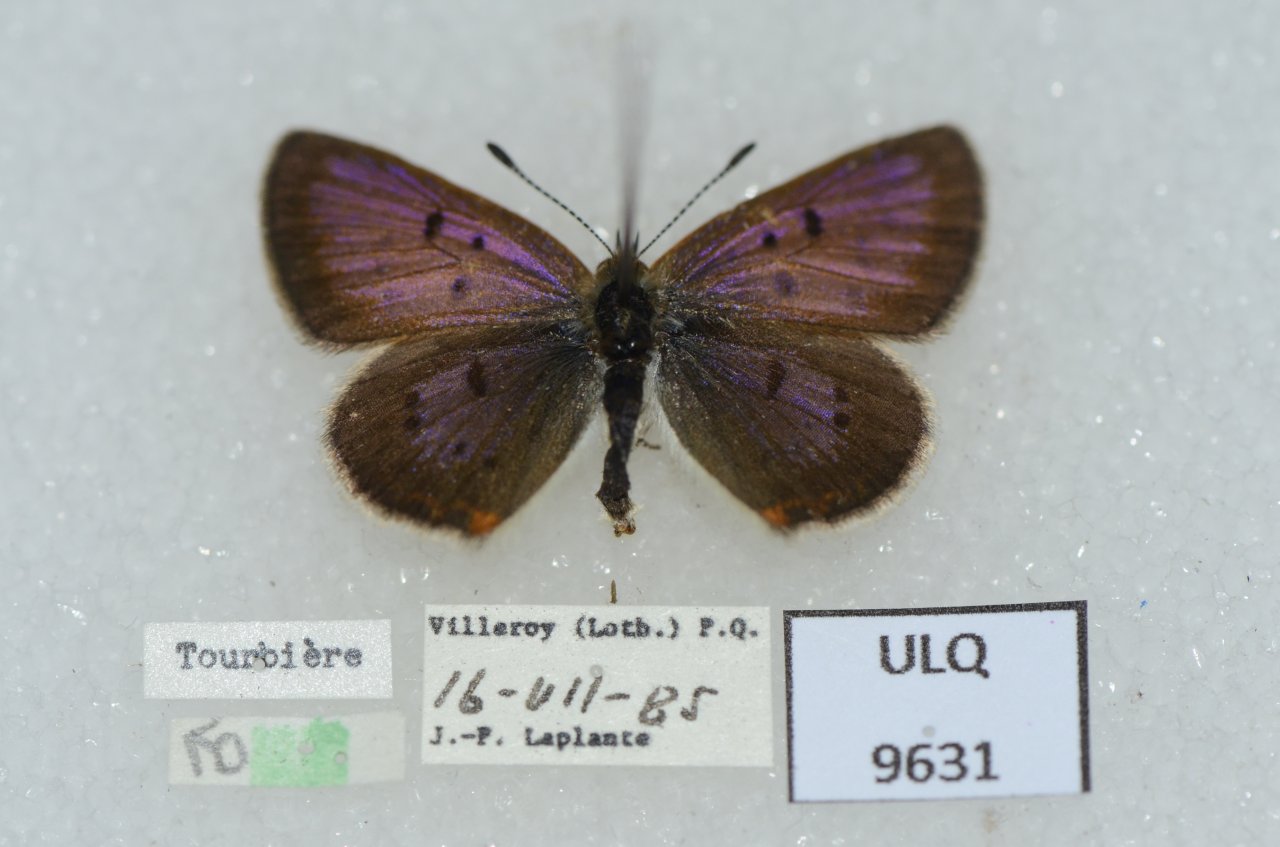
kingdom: Animalia
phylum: Arthropoda
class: Insecta
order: Lepidoptera
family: Sesiidae
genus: Sesia
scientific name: Sesia Lycaena epixanthe
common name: Bog Copper
